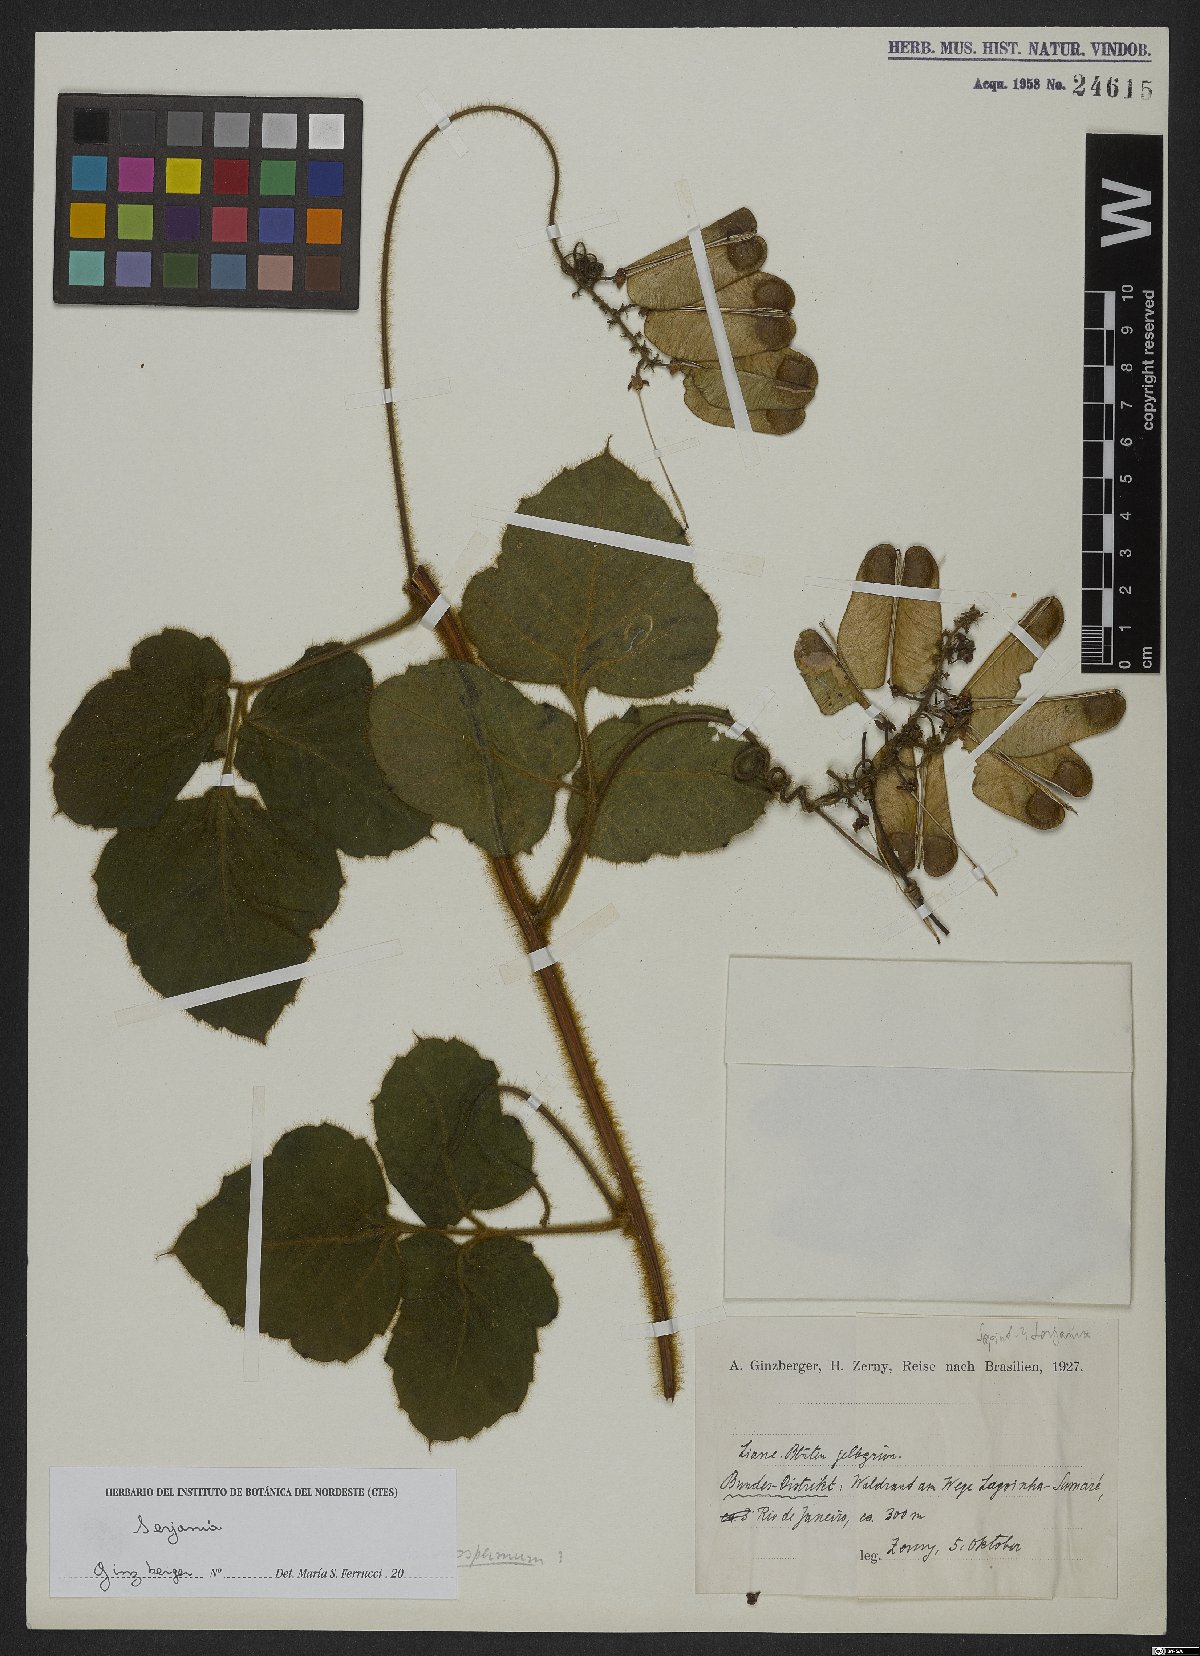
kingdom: Plantae
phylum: Tracheophyta
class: Magnoliopsida
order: Sapindales
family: Sapindaceae
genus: Serjania
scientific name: Serjania
